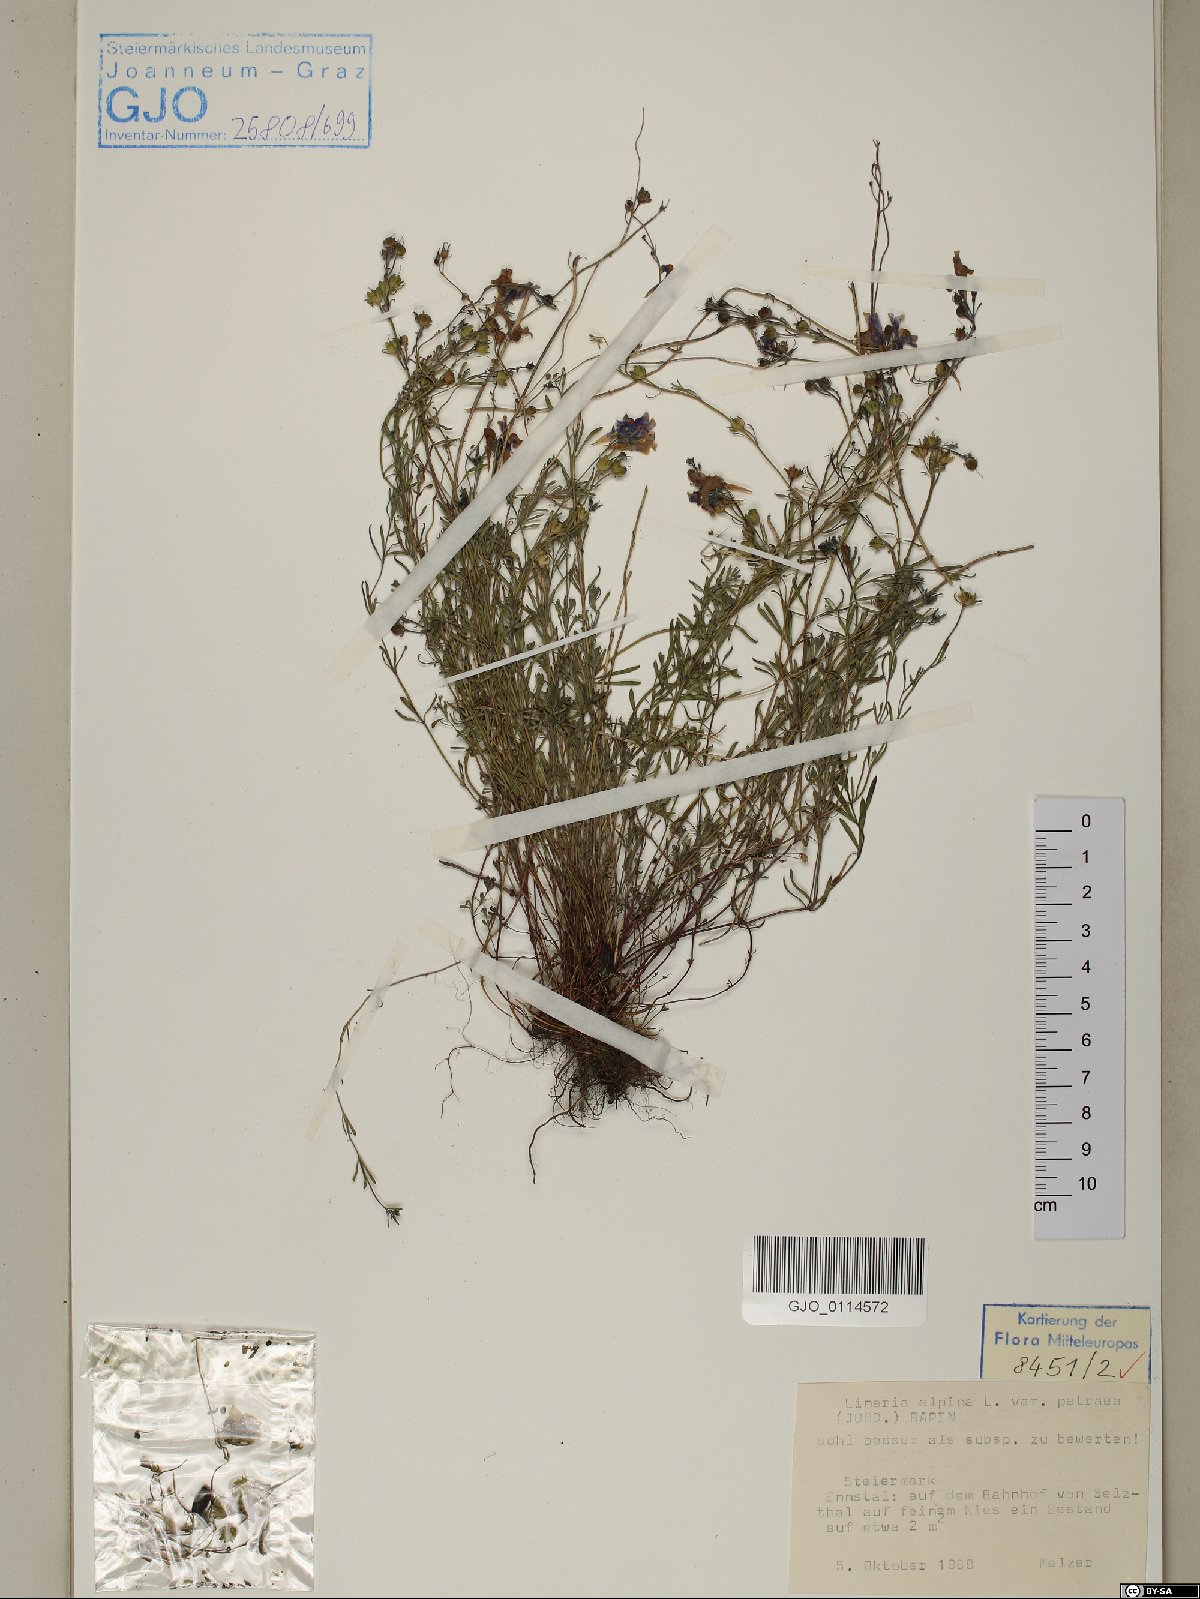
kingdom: Plantae
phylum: Tracheophyta
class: Magnoliopsida
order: Lamiales
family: Plantaginaceae
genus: Linaria
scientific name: Linaria alpina
